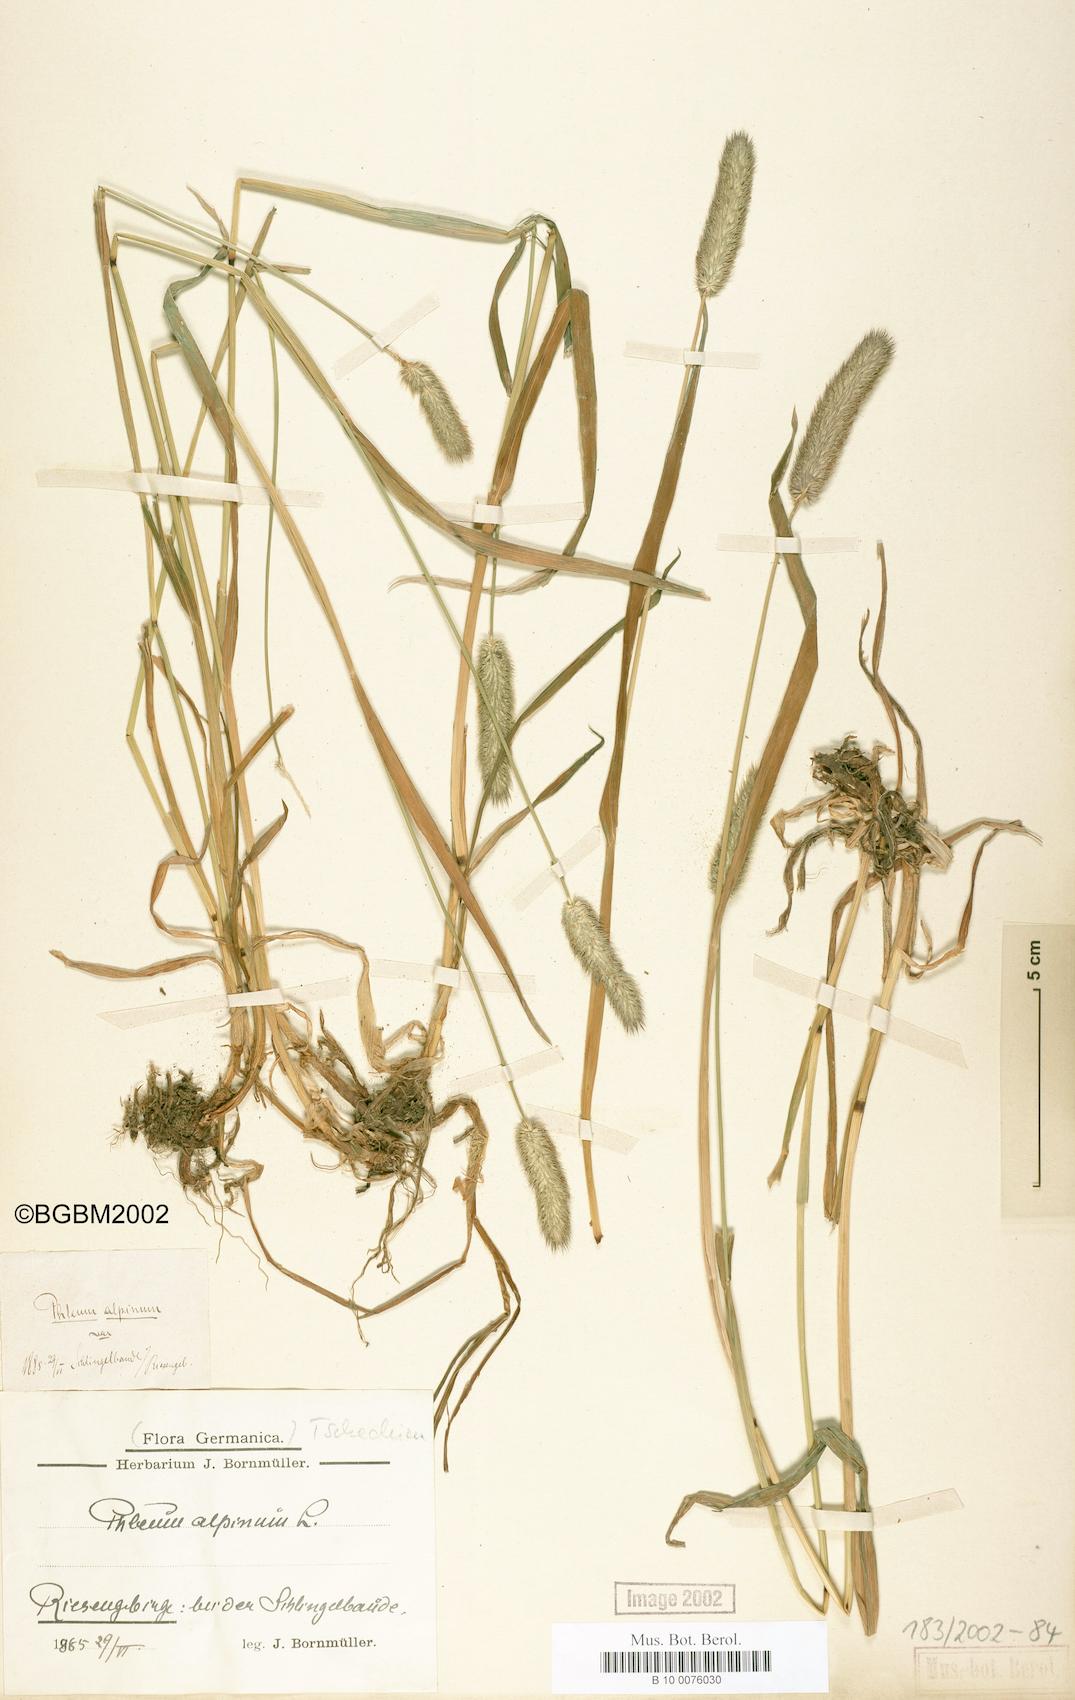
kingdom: Plantae
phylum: Tracheophyta
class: Liliopsida
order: Poales
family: Poaceae
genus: Phleum
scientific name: Phleum alpinum
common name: Alpine cat's-tail
